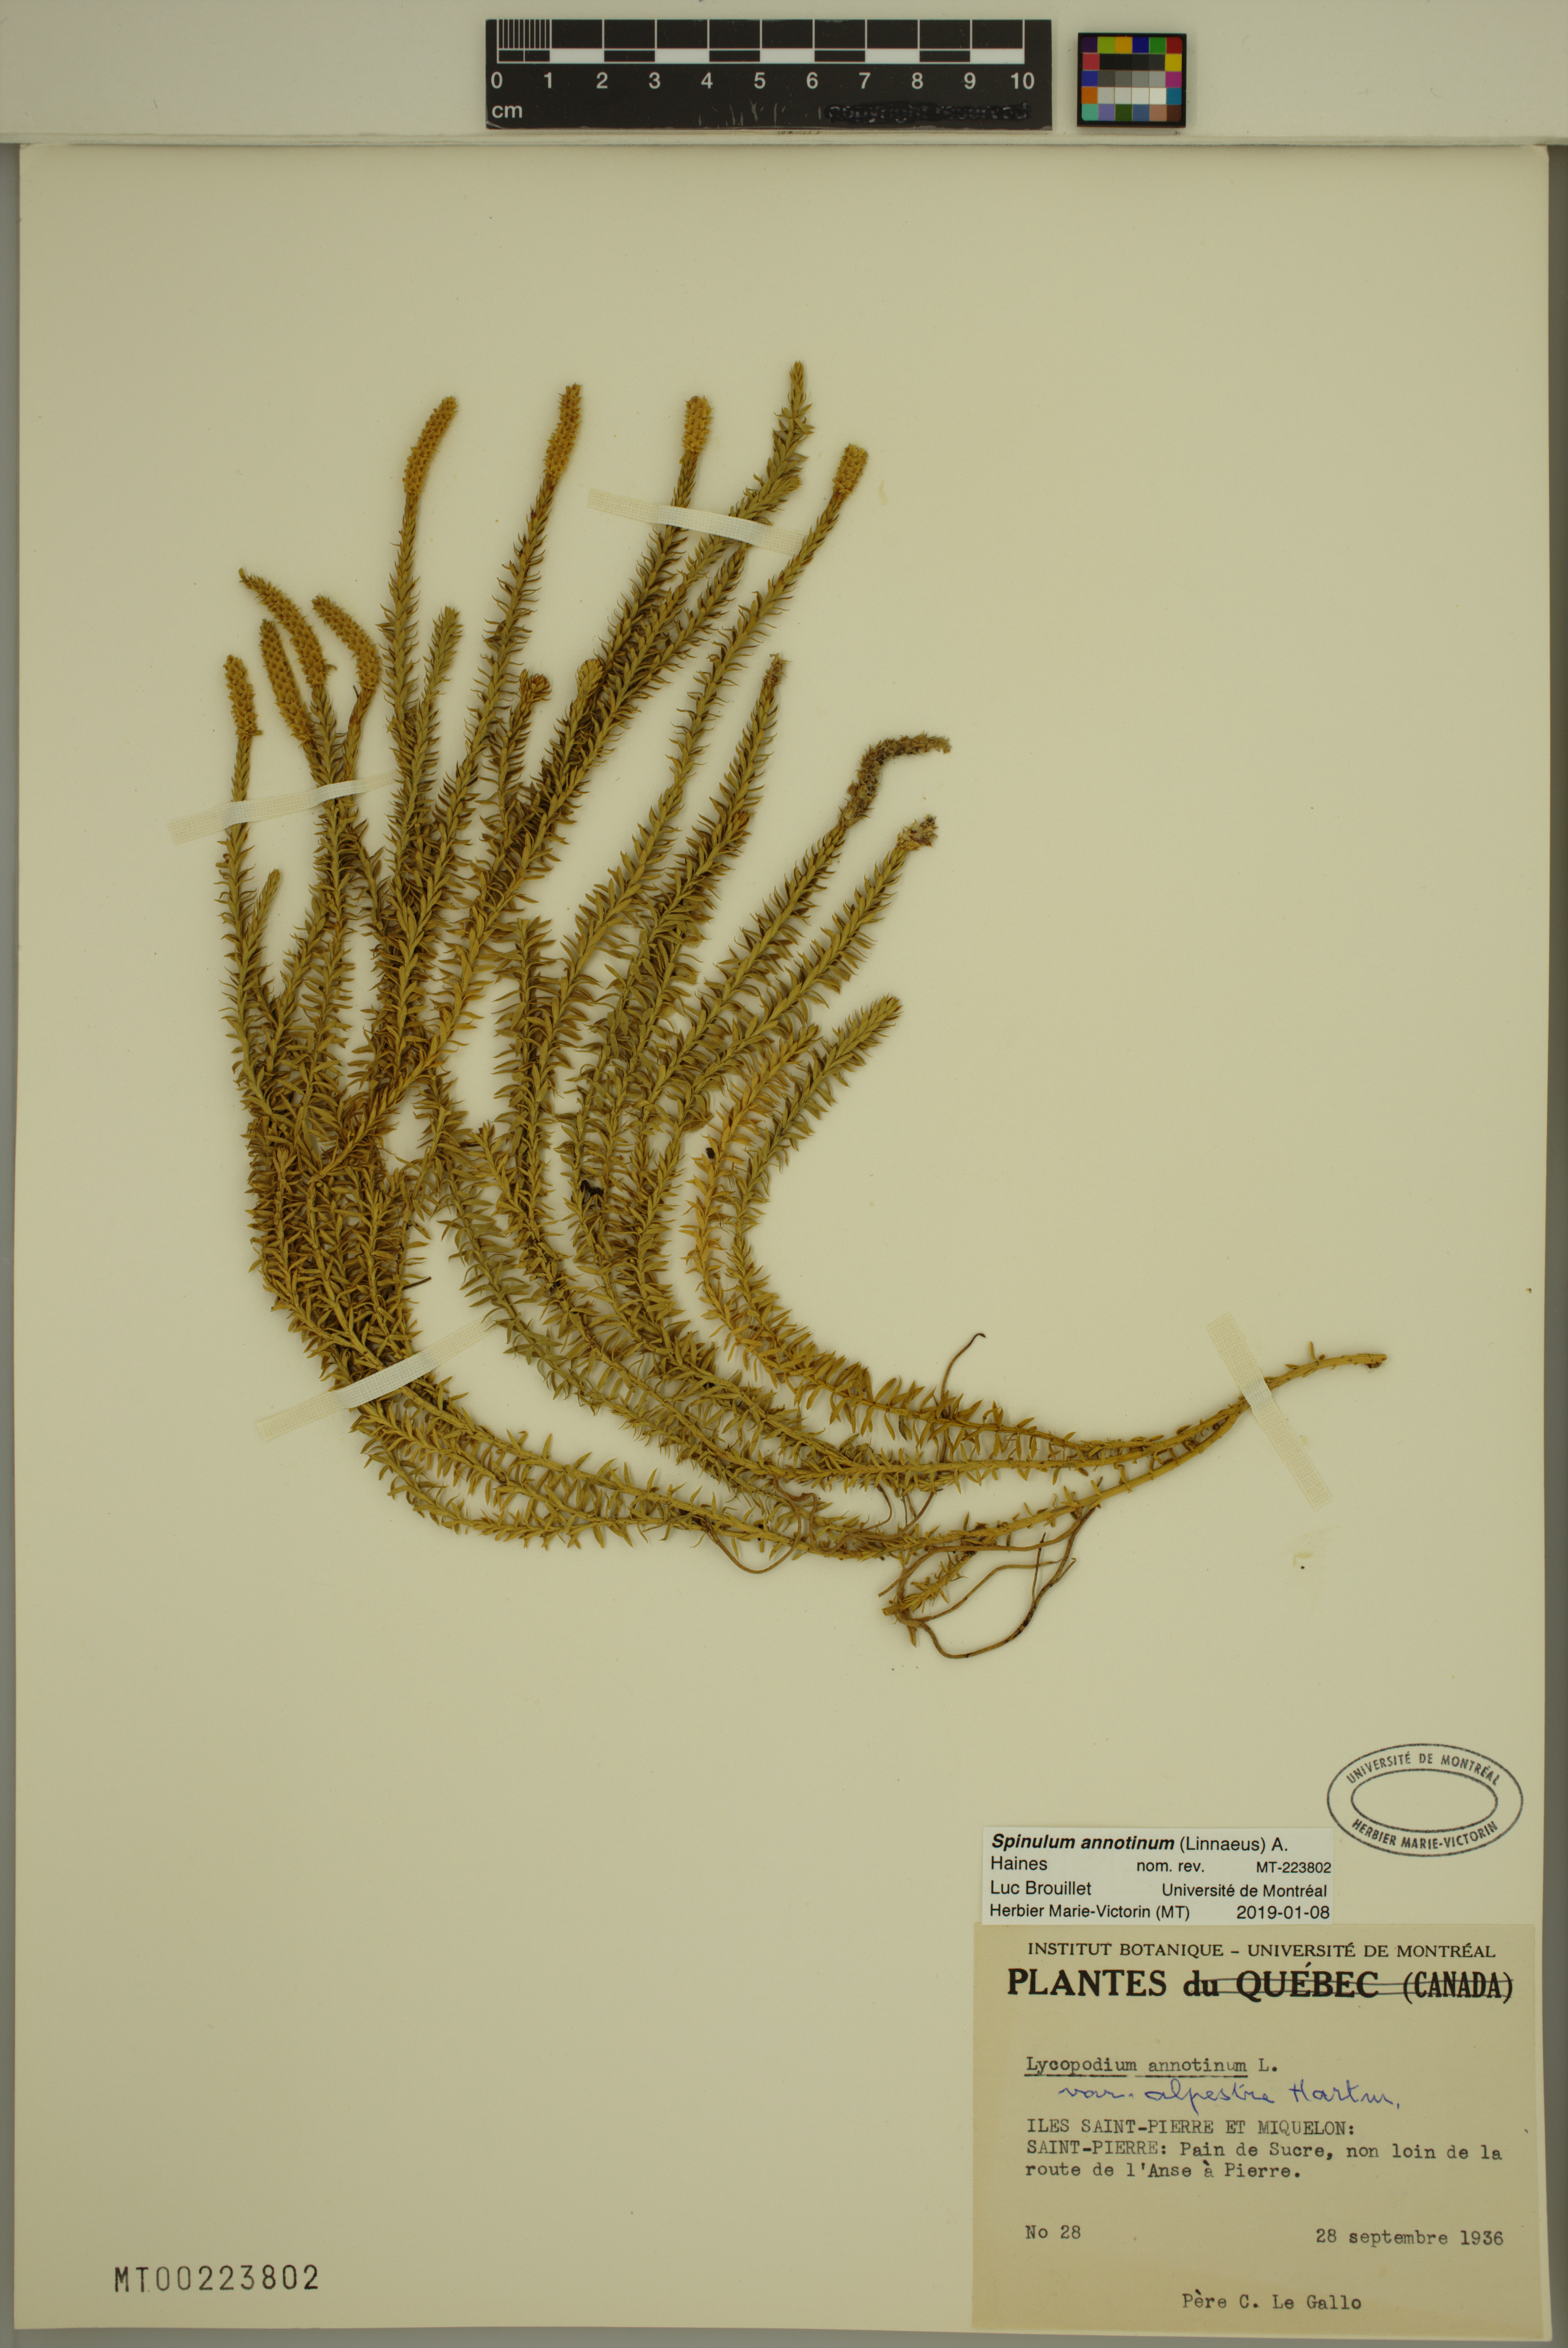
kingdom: Plantae
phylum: Tracheophyta
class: Lycopodiopsida
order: Lycopodiales
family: Lycopodiaceae
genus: Spinulum
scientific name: Spinulum annotinum
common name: Interrupted club-moss
